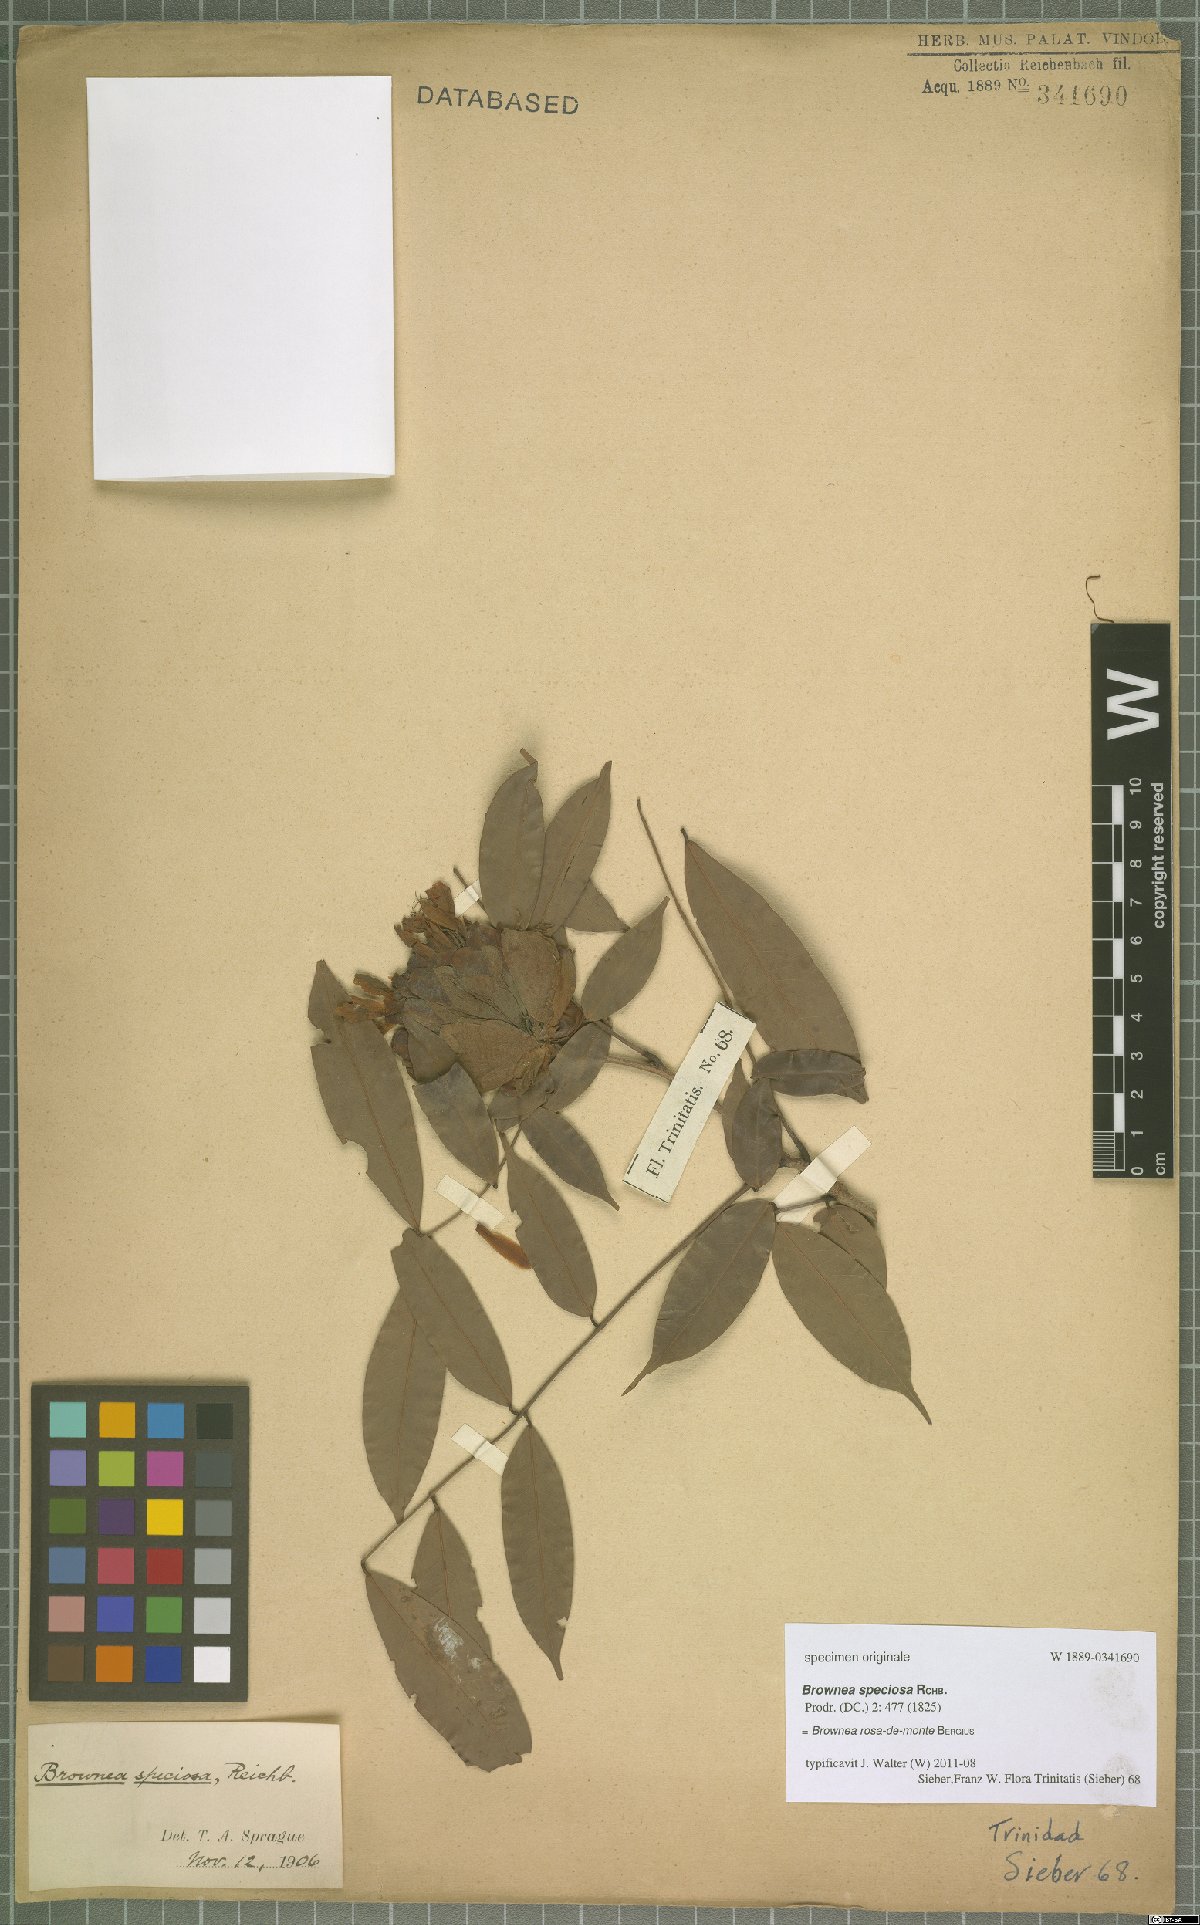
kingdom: Plantae
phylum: Tracheophyta
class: Magnoliopsida
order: Fabales
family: Fabaceae
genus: Brownea
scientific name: Brownea rosa-de-monte
